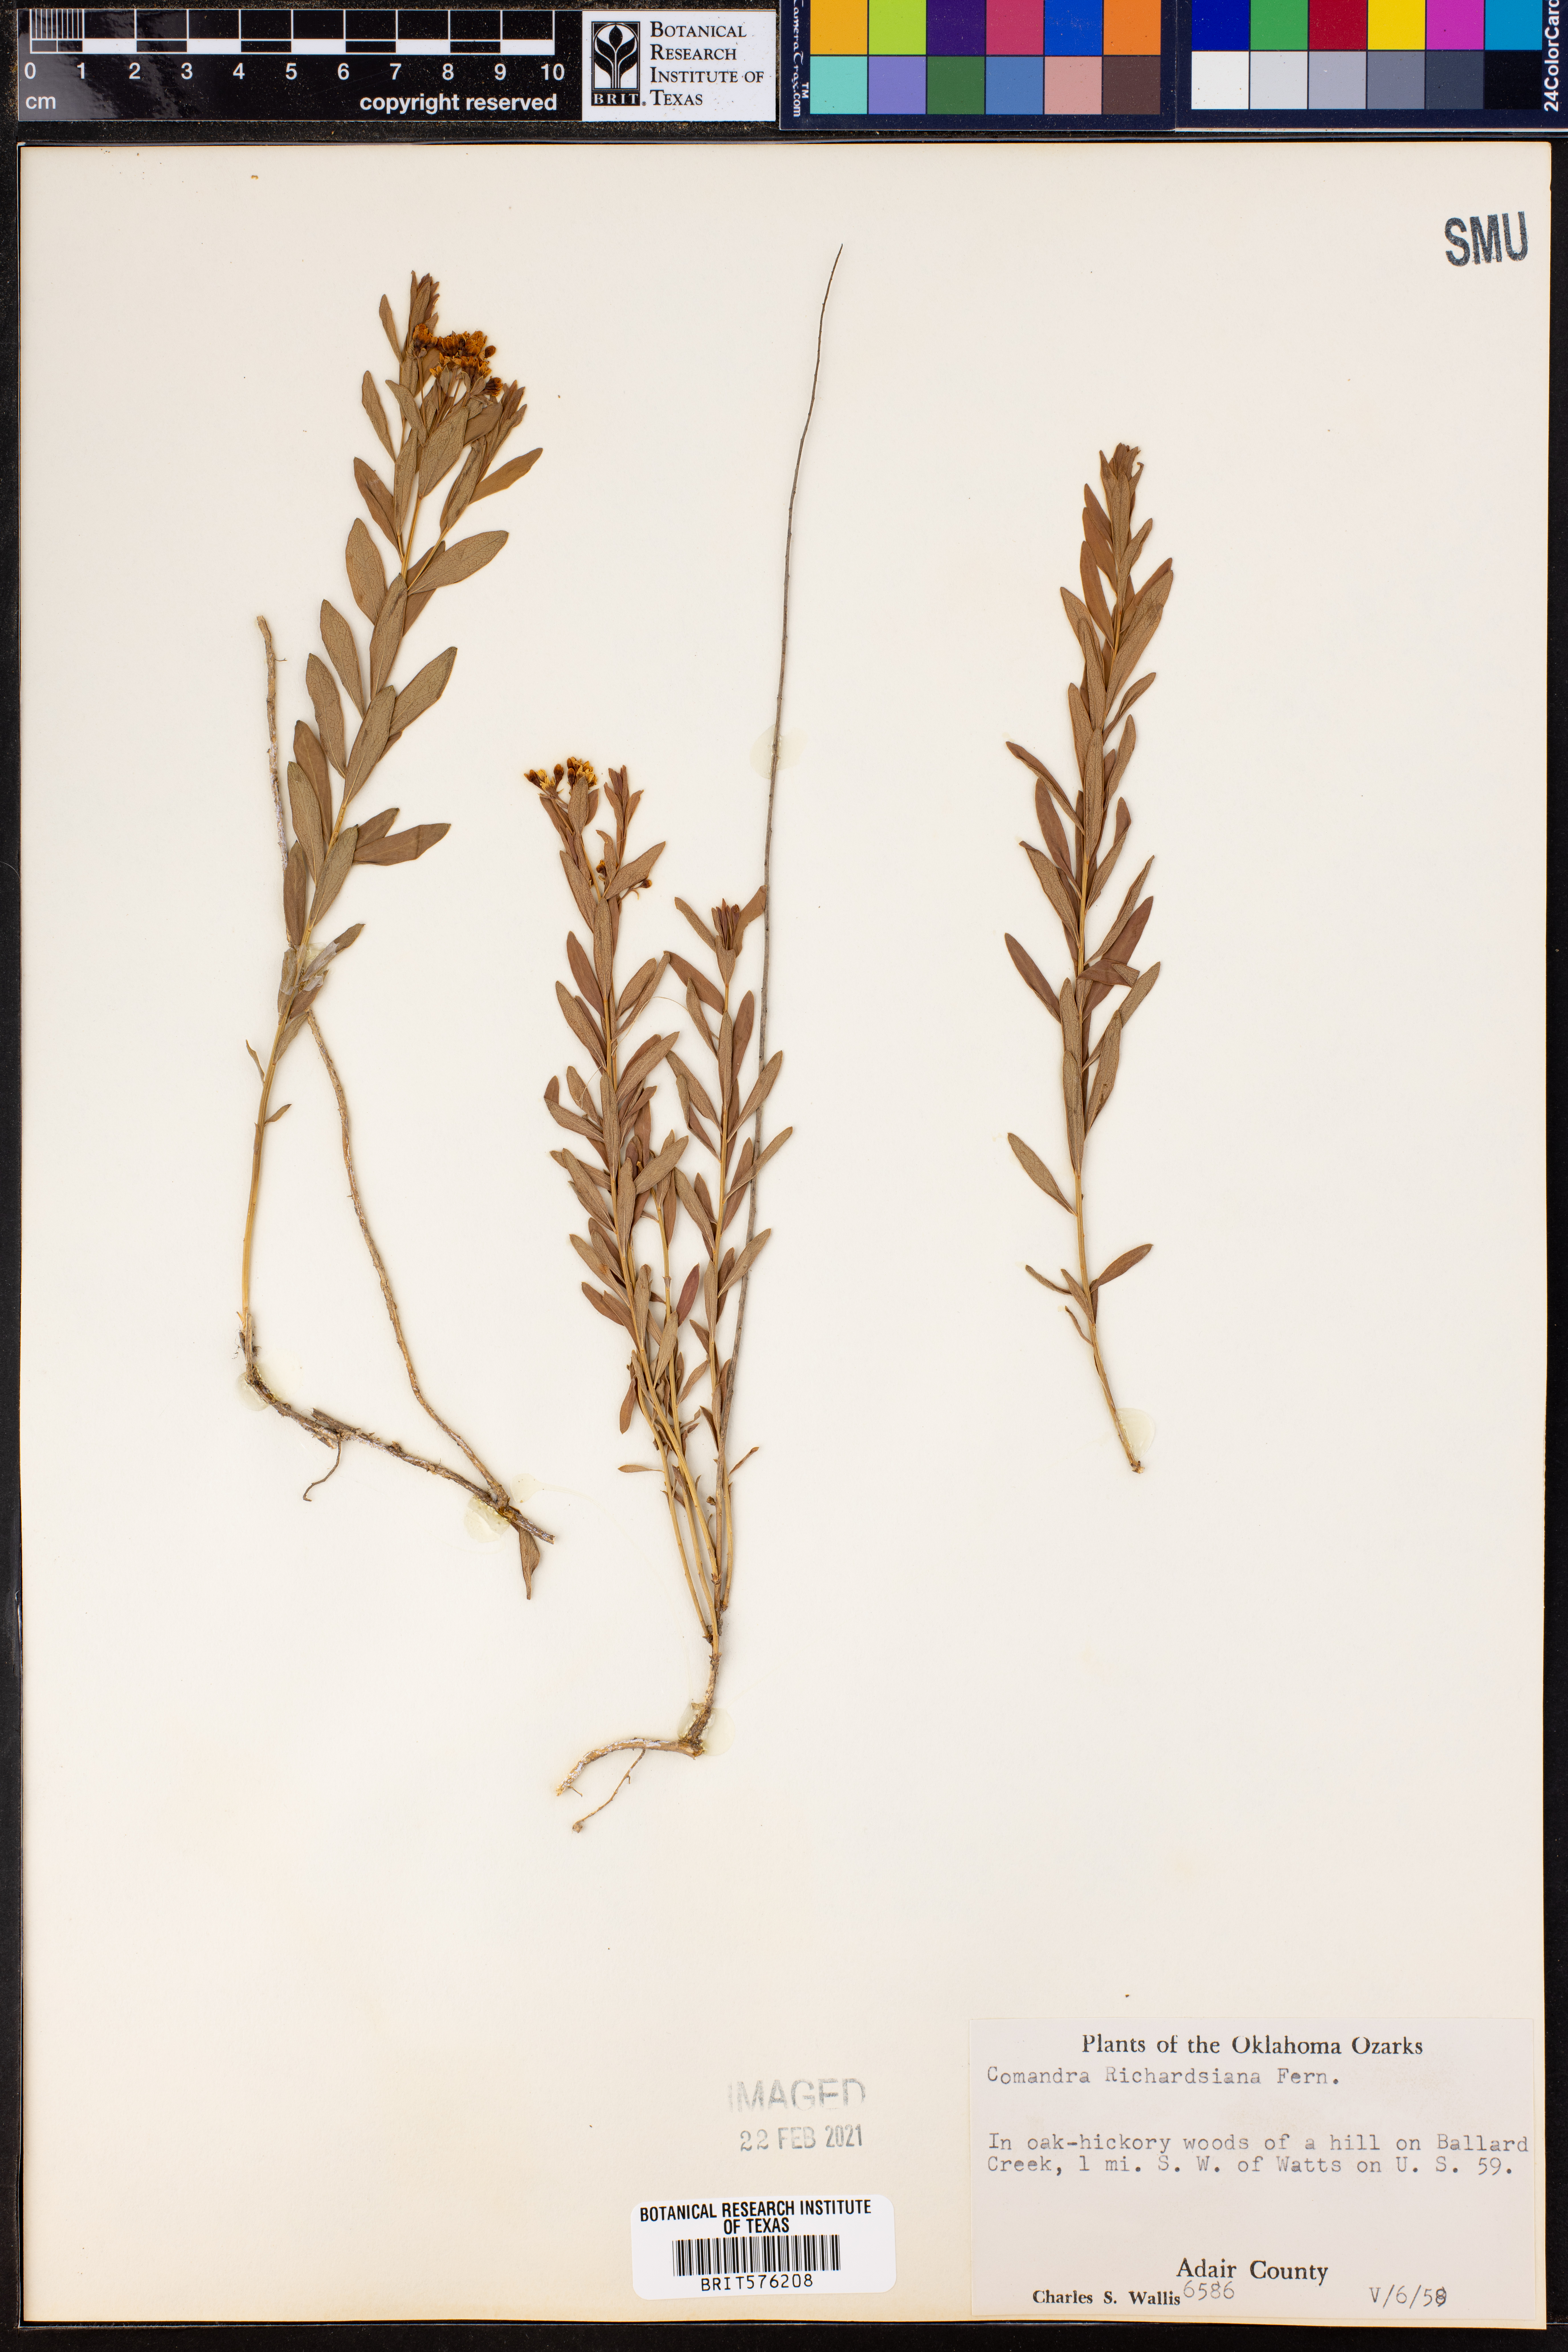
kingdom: Plantae
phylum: Tracheophyta
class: Magnoliopsida
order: Santalales
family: Comandraceae
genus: Comandra
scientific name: Comandra umbellata
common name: Bastard toadflax
